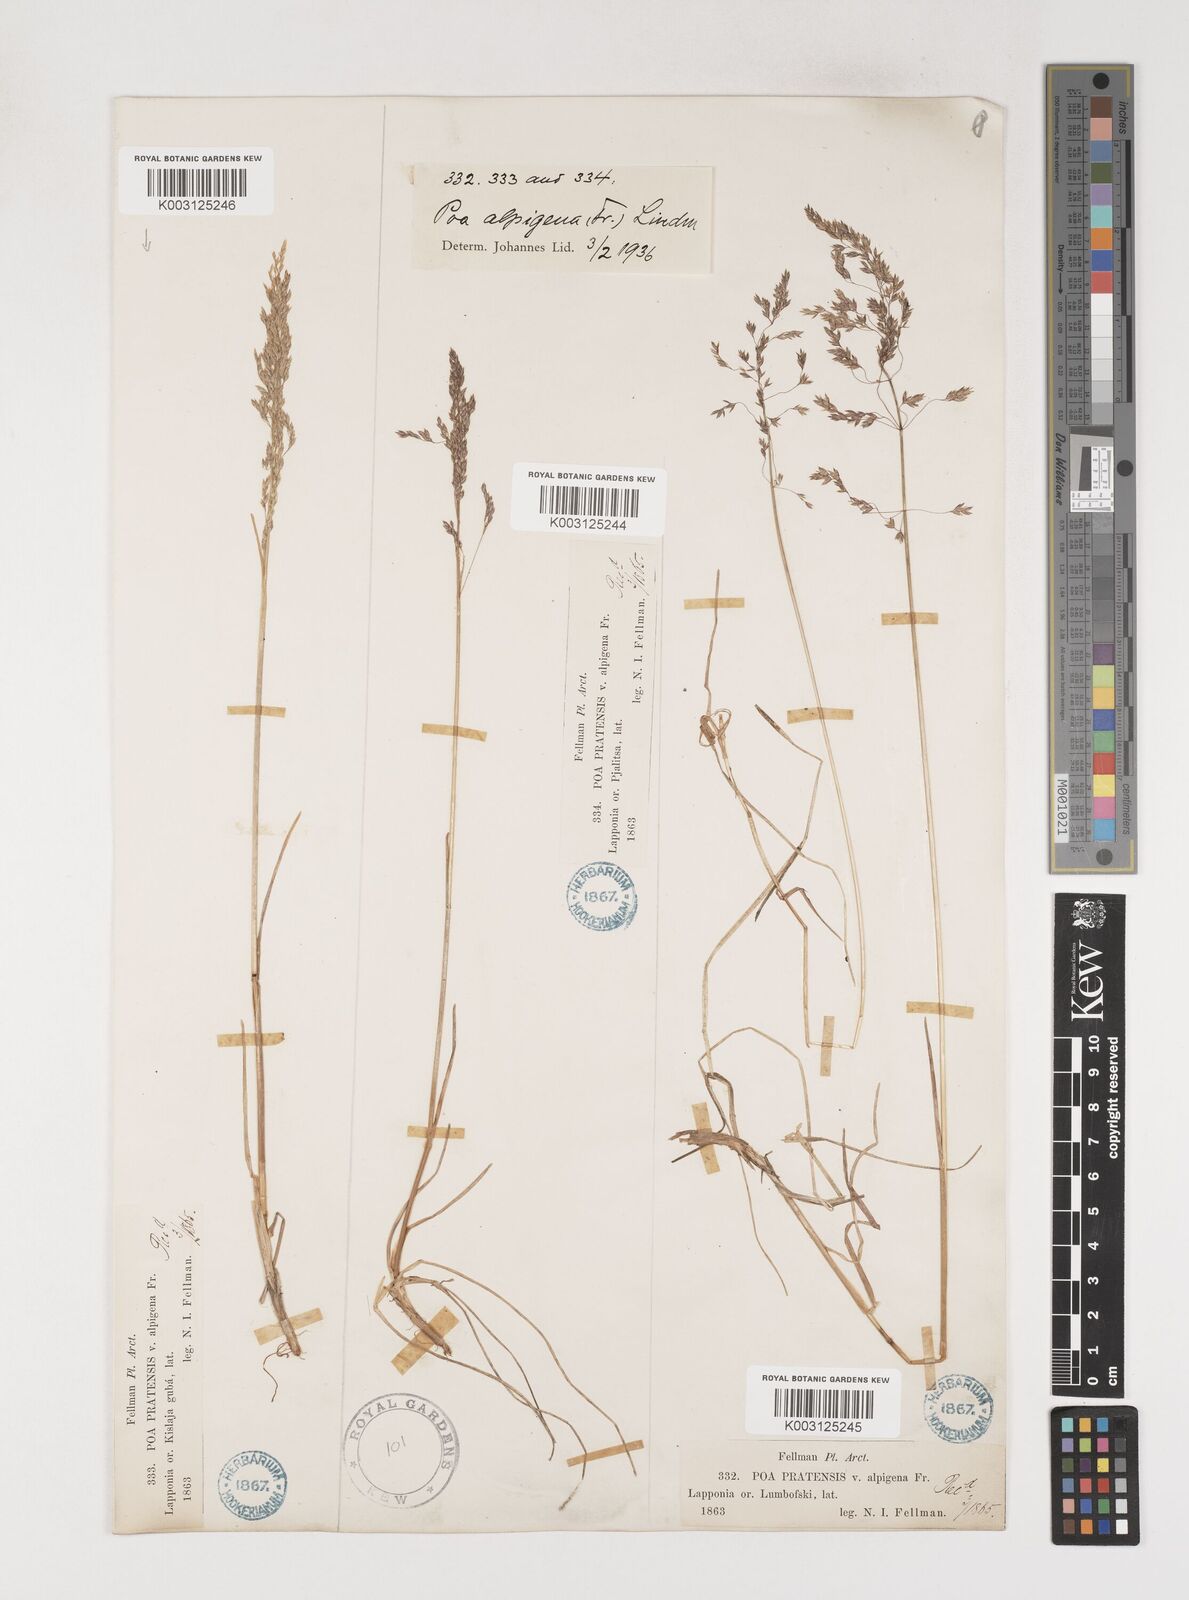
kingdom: Plantae
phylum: Tracheophyta
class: Liliopsida
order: Poales
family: Poaceae
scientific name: Poaceae
